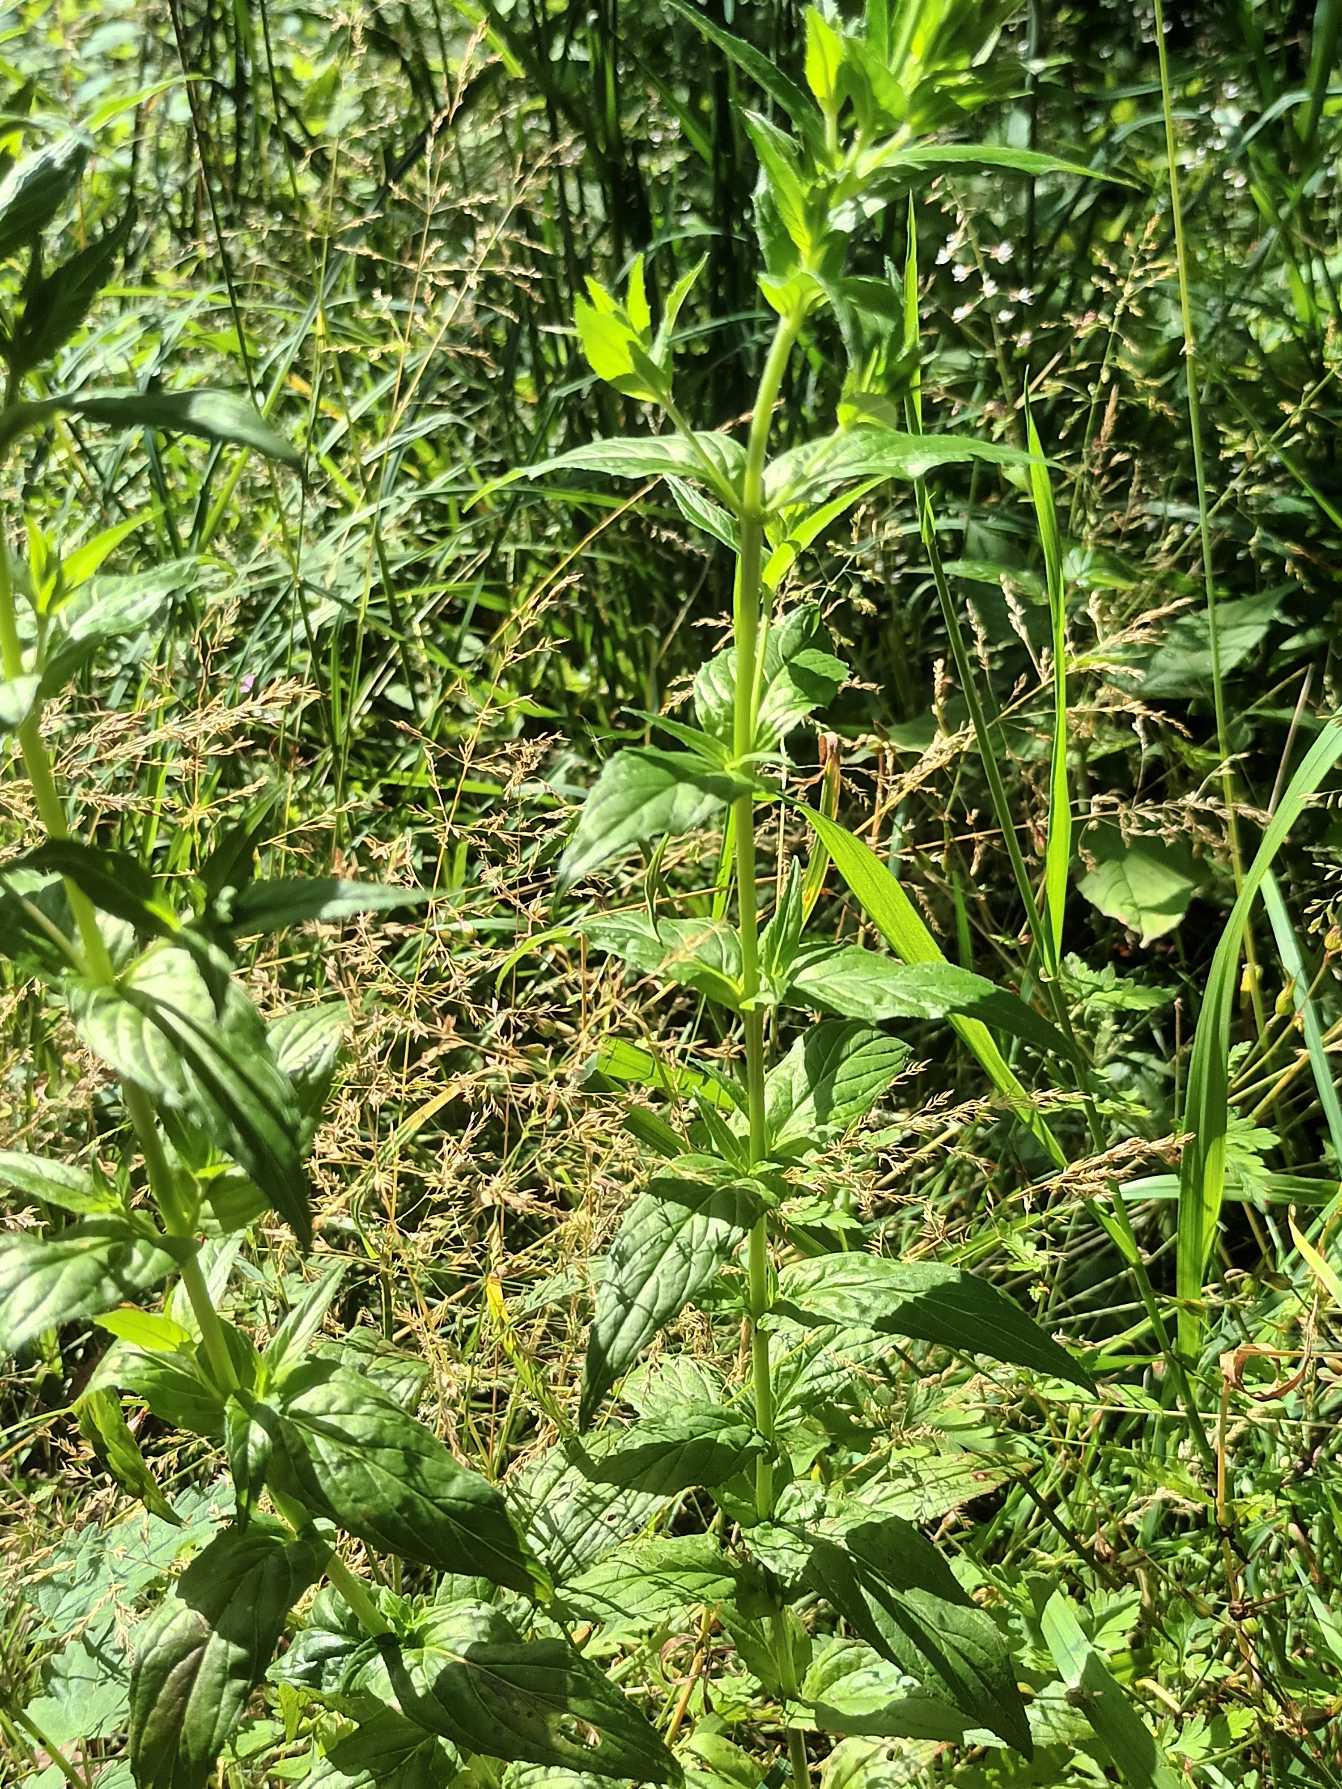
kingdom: Plantae
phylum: Tracheophyta
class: Magnoliopsida
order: Myrtales
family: Onagraceae
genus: Epilobium
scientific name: Epilobium ciliatum
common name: Alaska-dueurt
